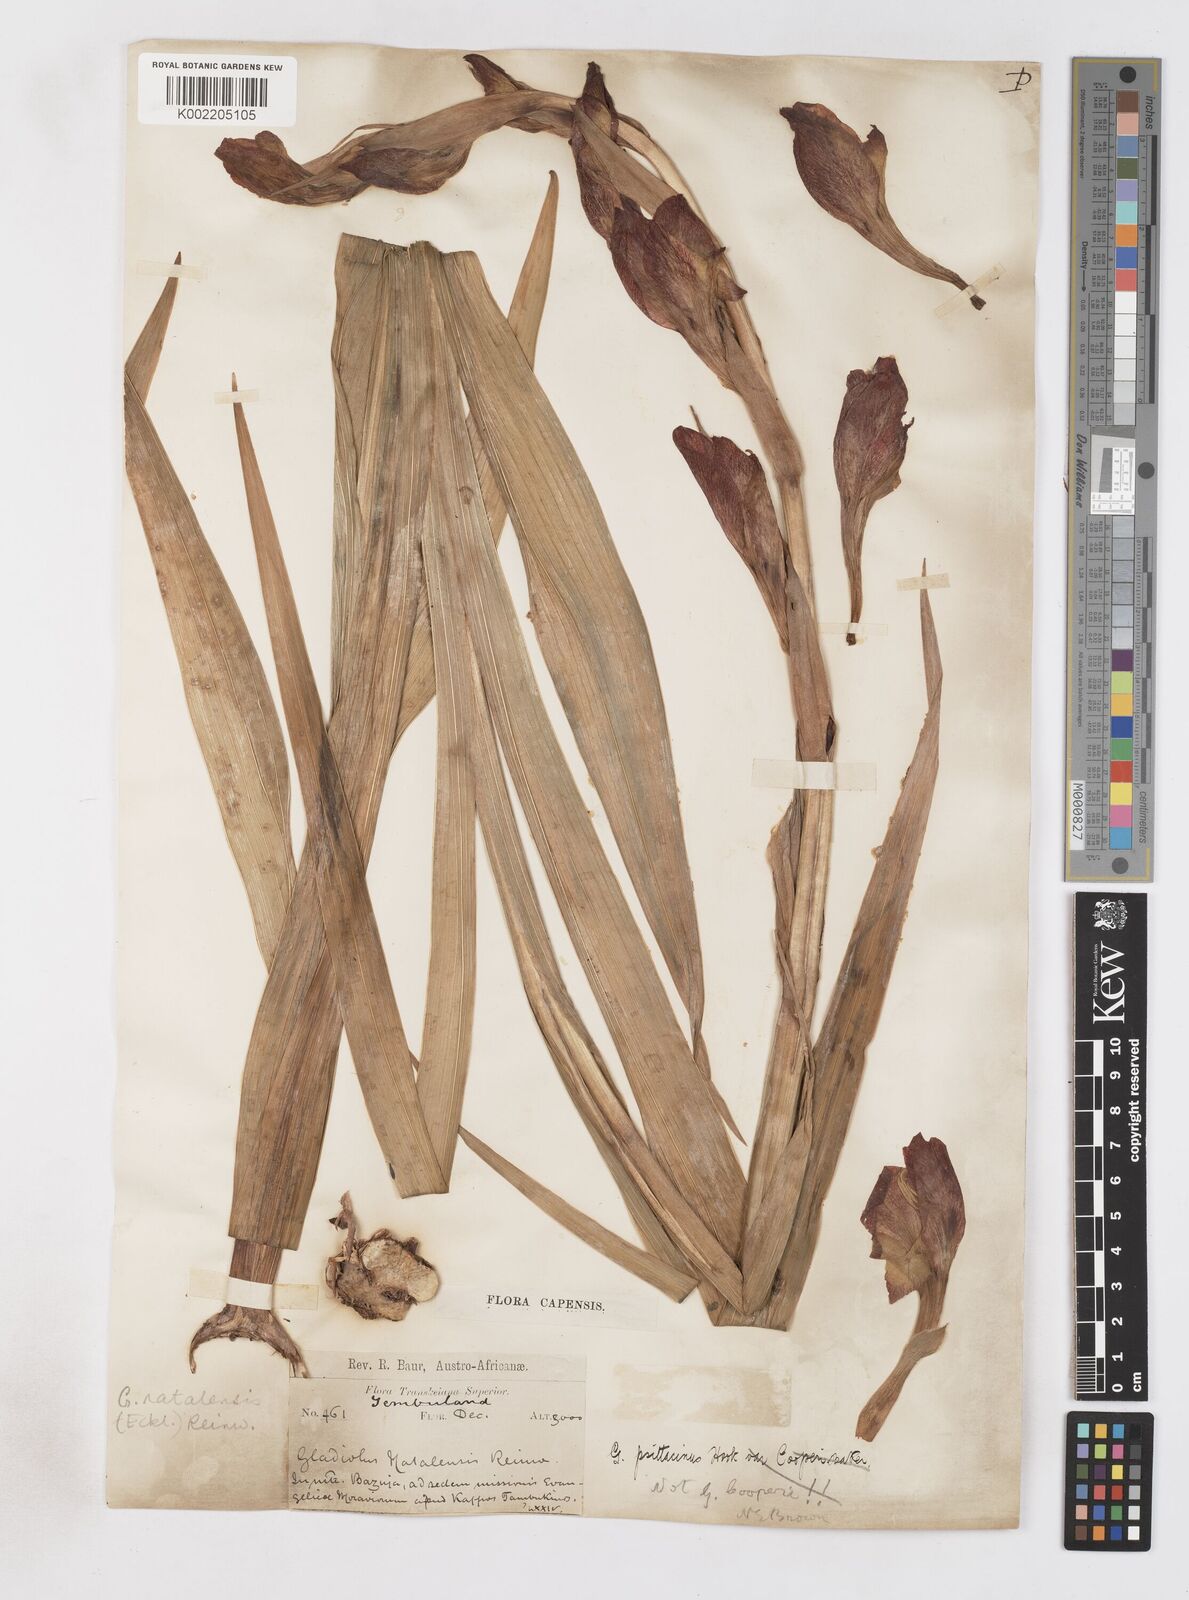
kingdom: Plantae
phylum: Tracheophyta
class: Liliopsida
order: Asparagales
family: Iridaceae
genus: Gladiolus
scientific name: Gladiolus dalenii
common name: Cornflag
